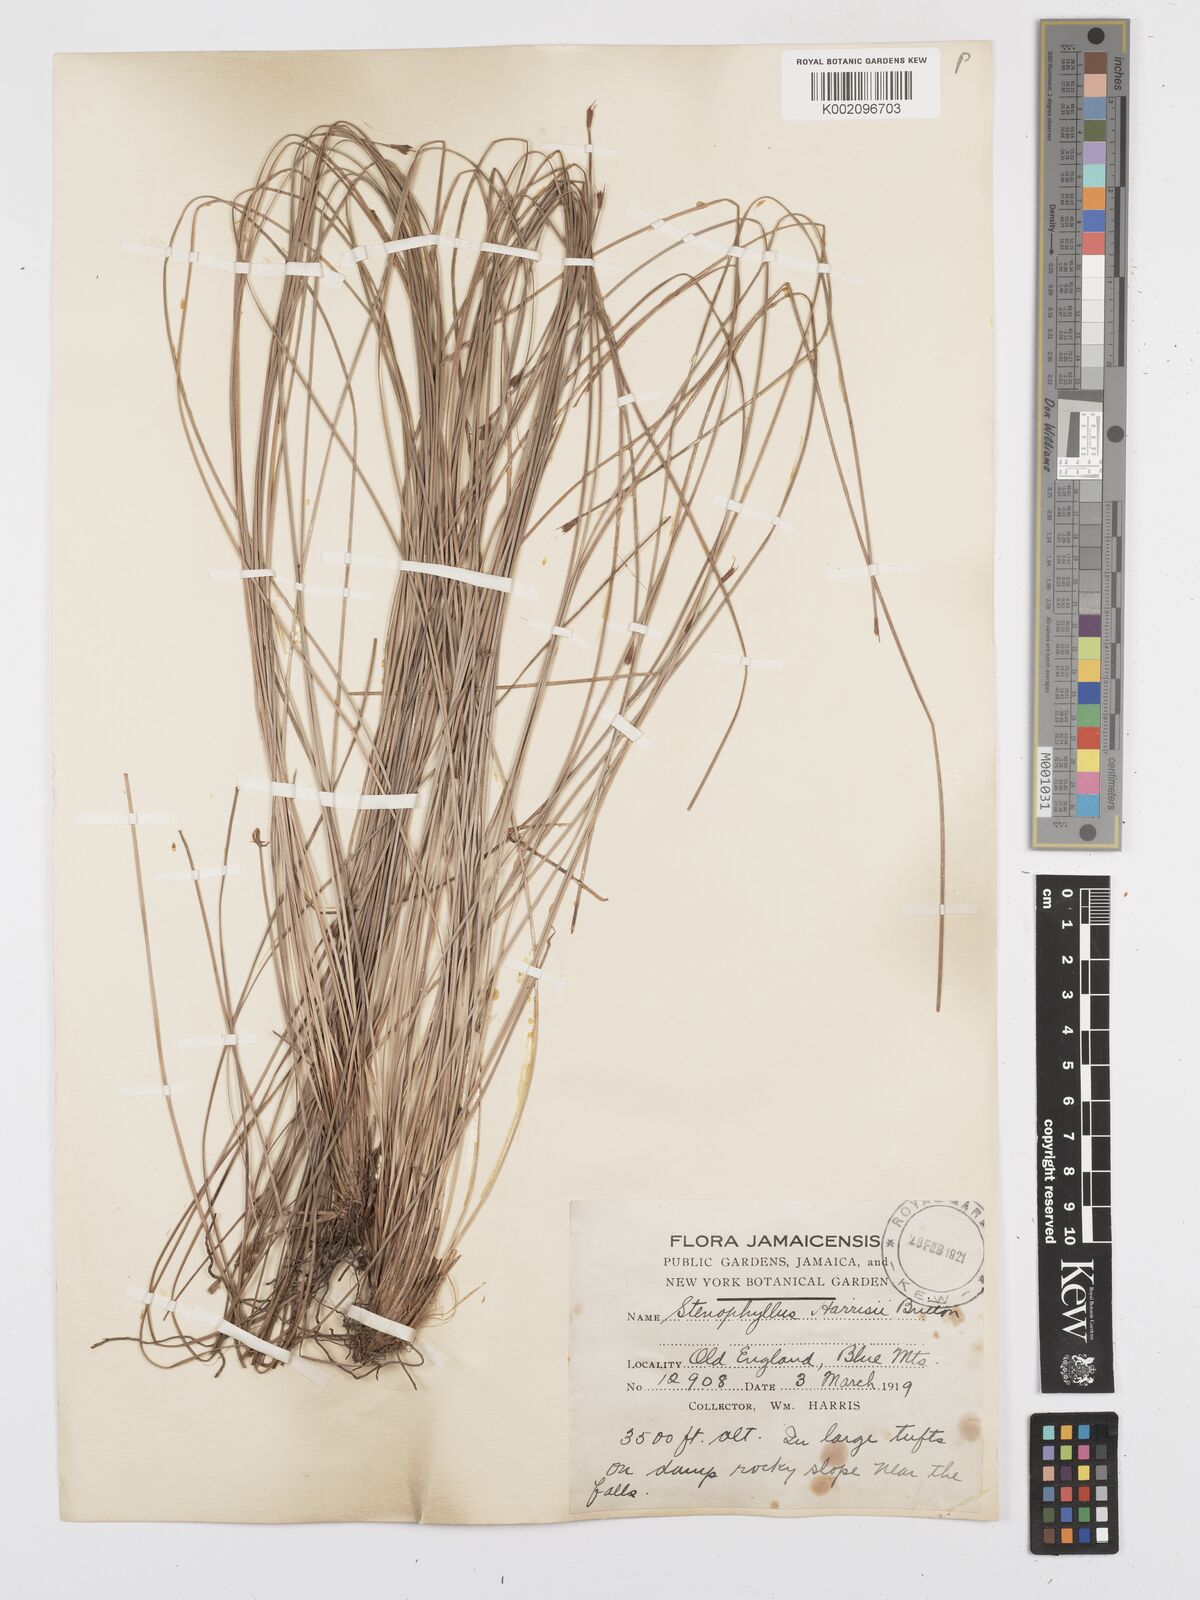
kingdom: Plantae
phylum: Tracheophyta
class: Liliopsida
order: Poales
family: Cyperaceae
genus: Bulbostylis
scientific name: Bulbostylis
